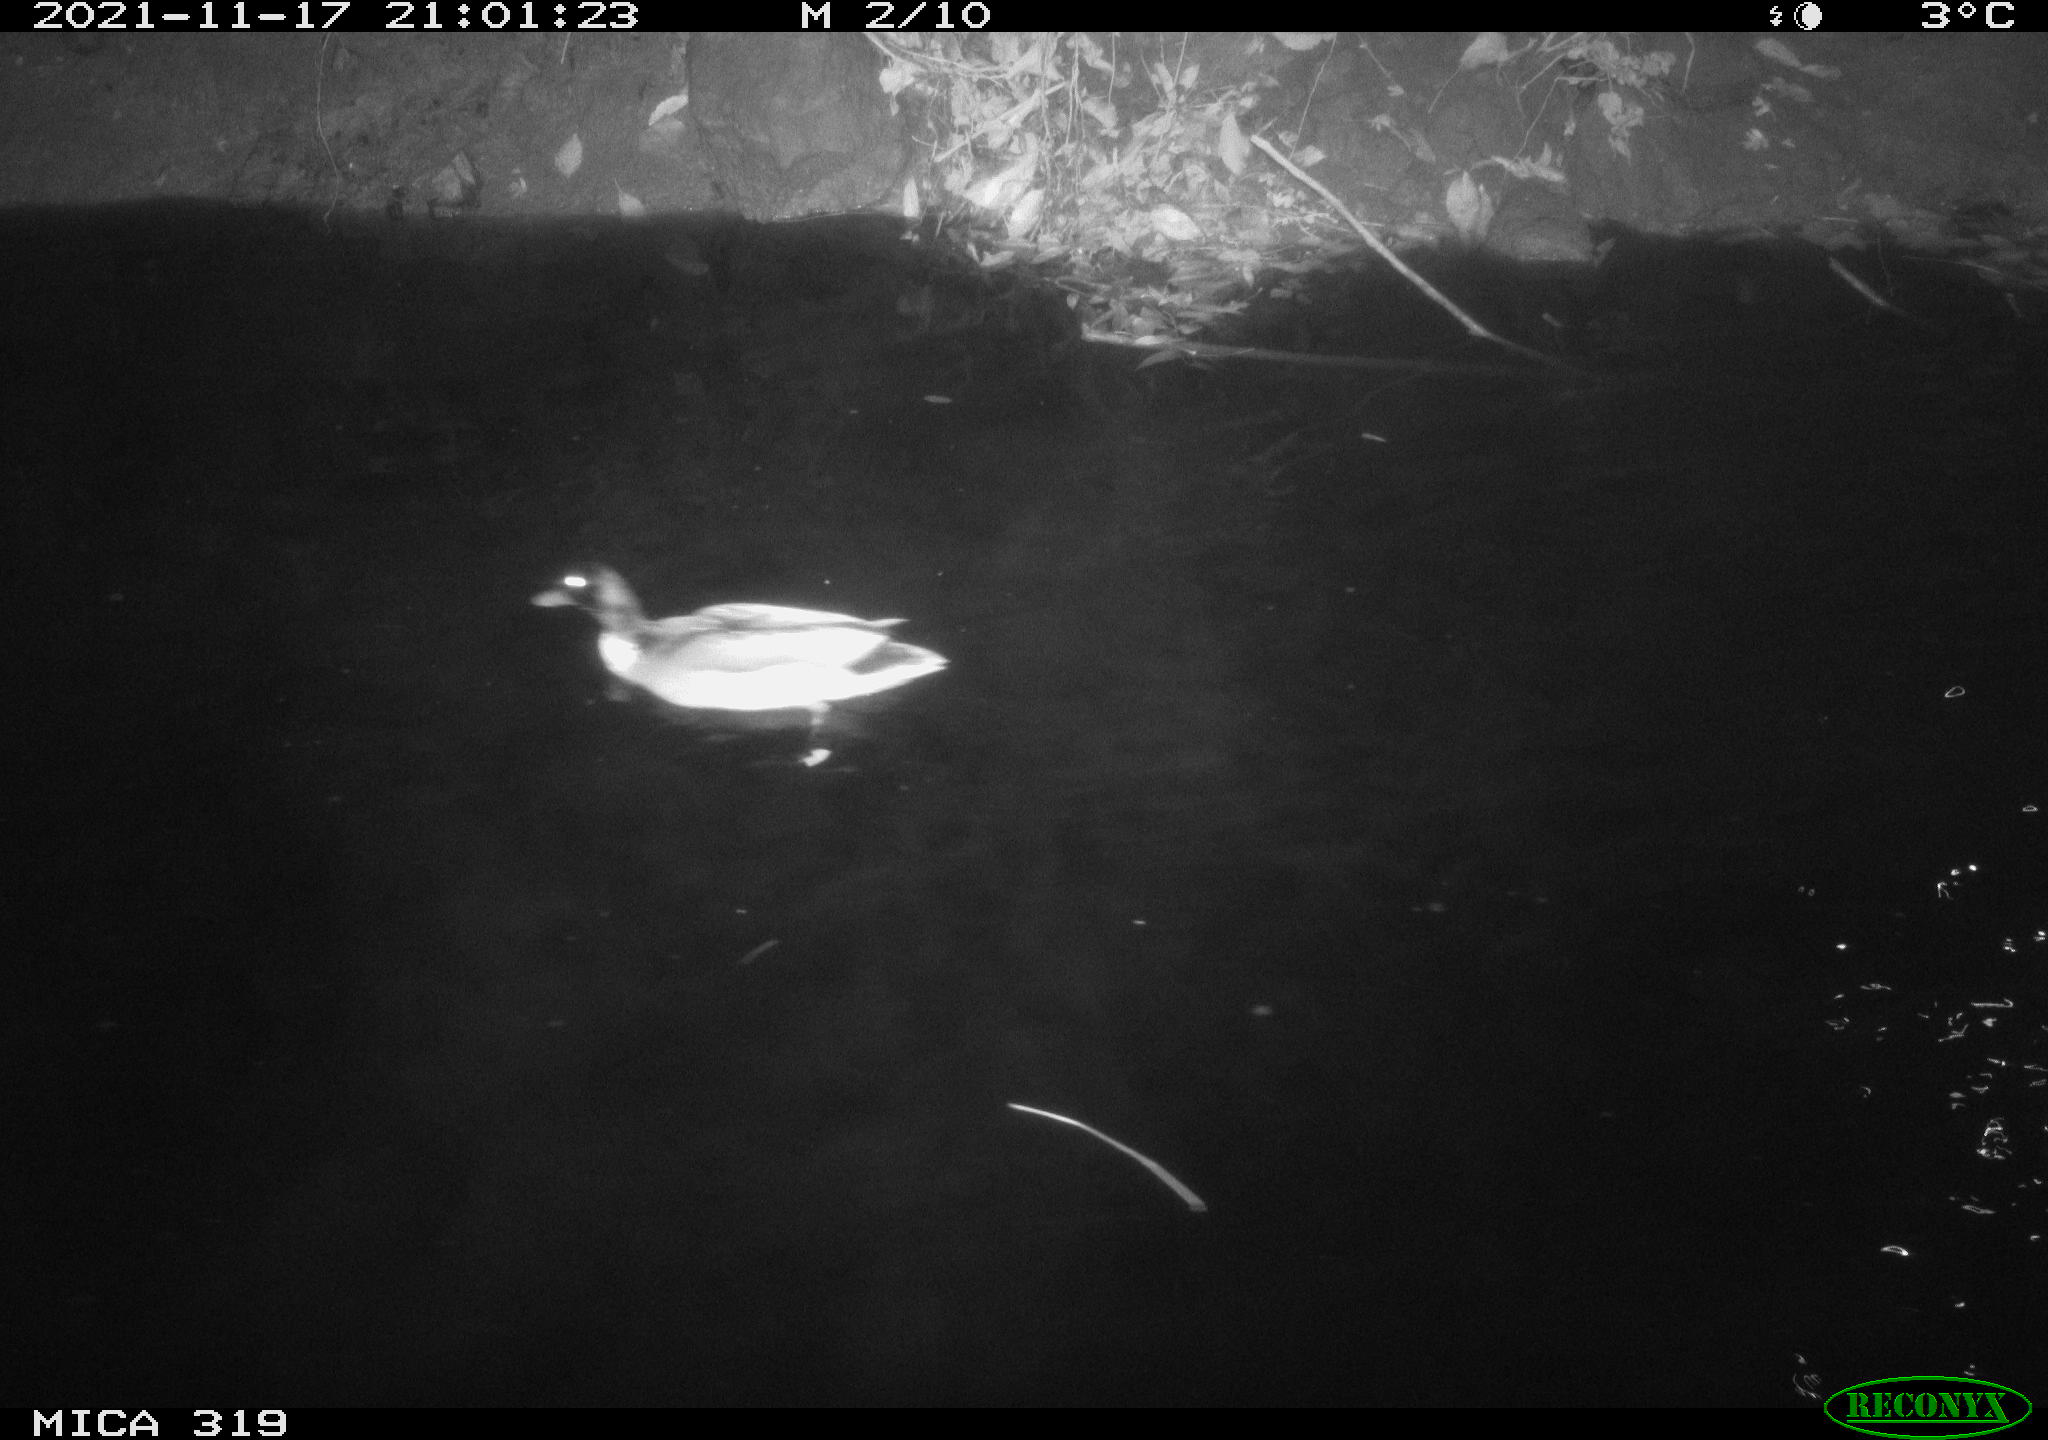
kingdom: Animalia
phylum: Chordata
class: Aves
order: Anseriformes
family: Anatidae
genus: Anas
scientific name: Anas platyrhynchos
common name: Mallard
